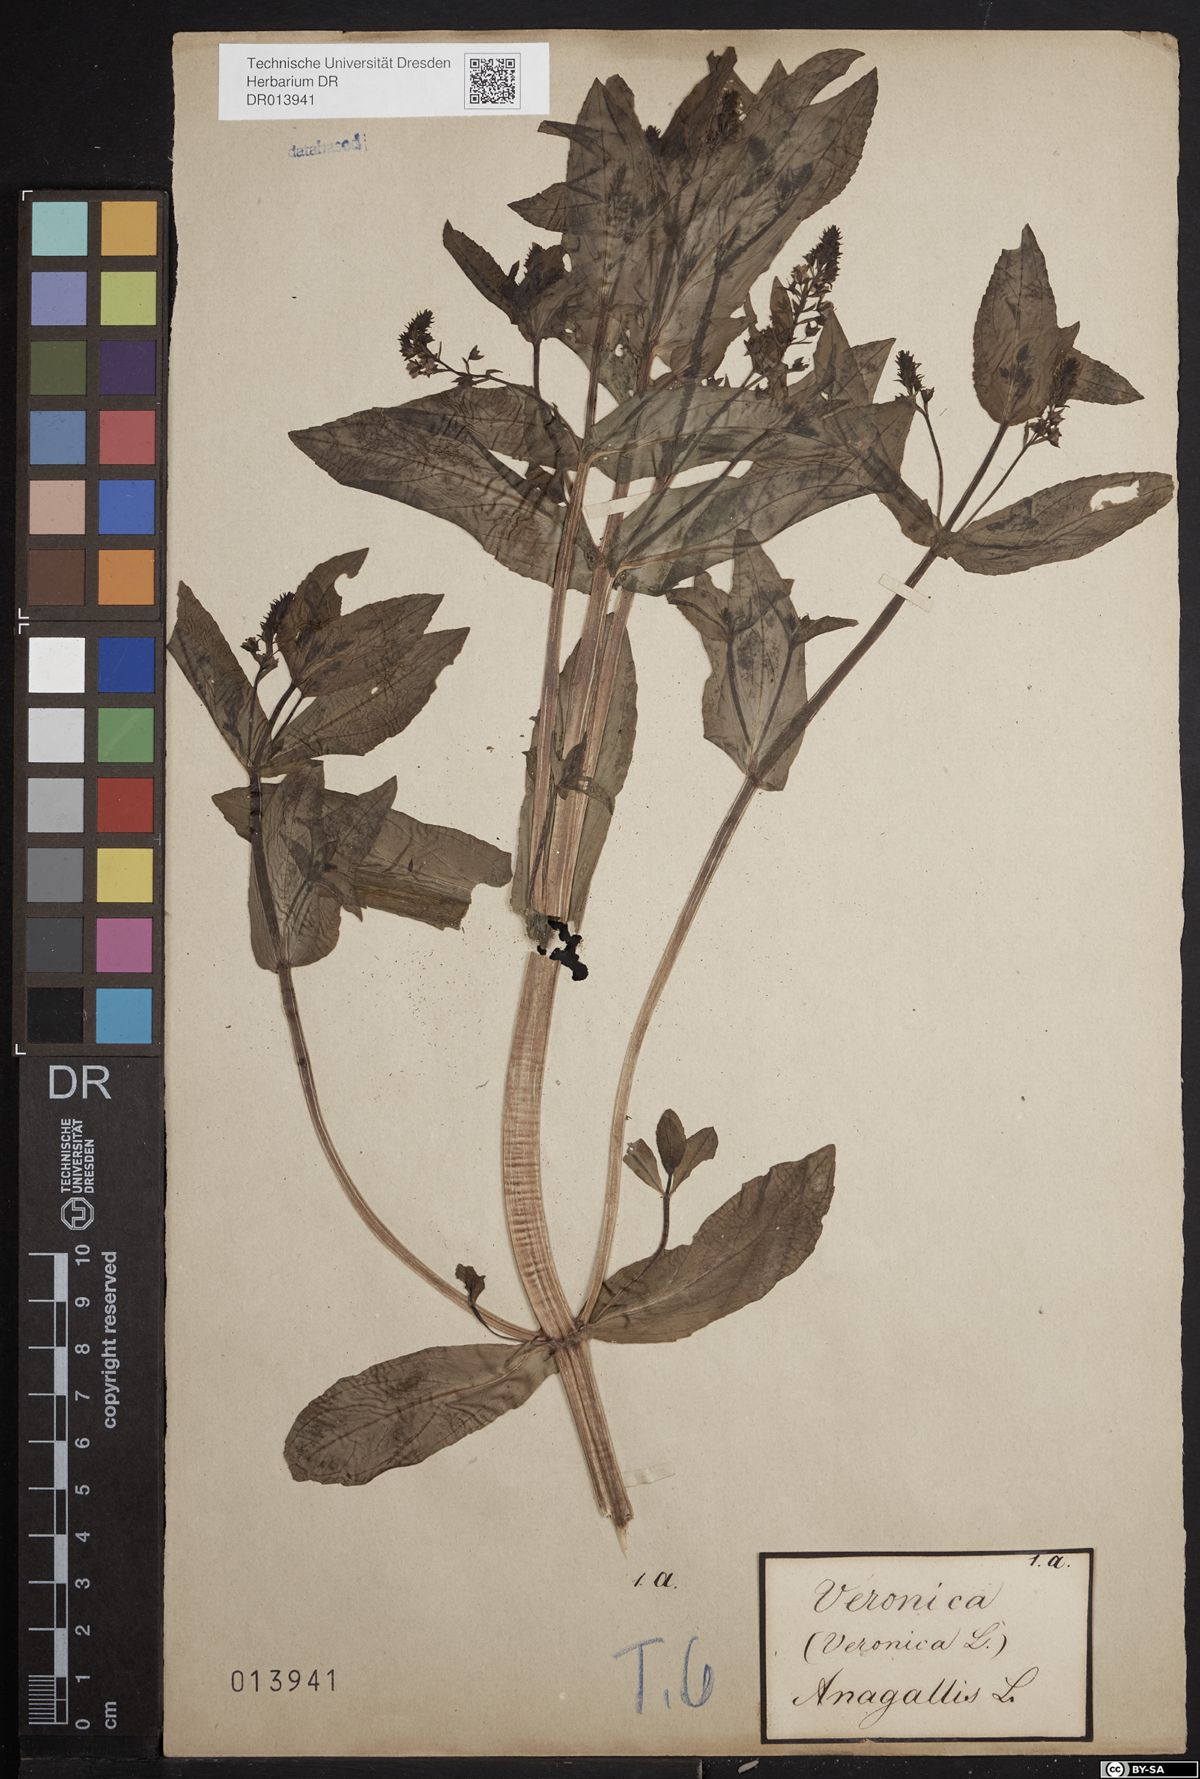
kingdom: Plantae
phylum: Tracheophyta
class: Magnoliopsida
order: Lamiales
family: Plantaginaceae
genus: Veronica
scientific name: Veronica anagallis-aquatica
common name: Water speedwell
